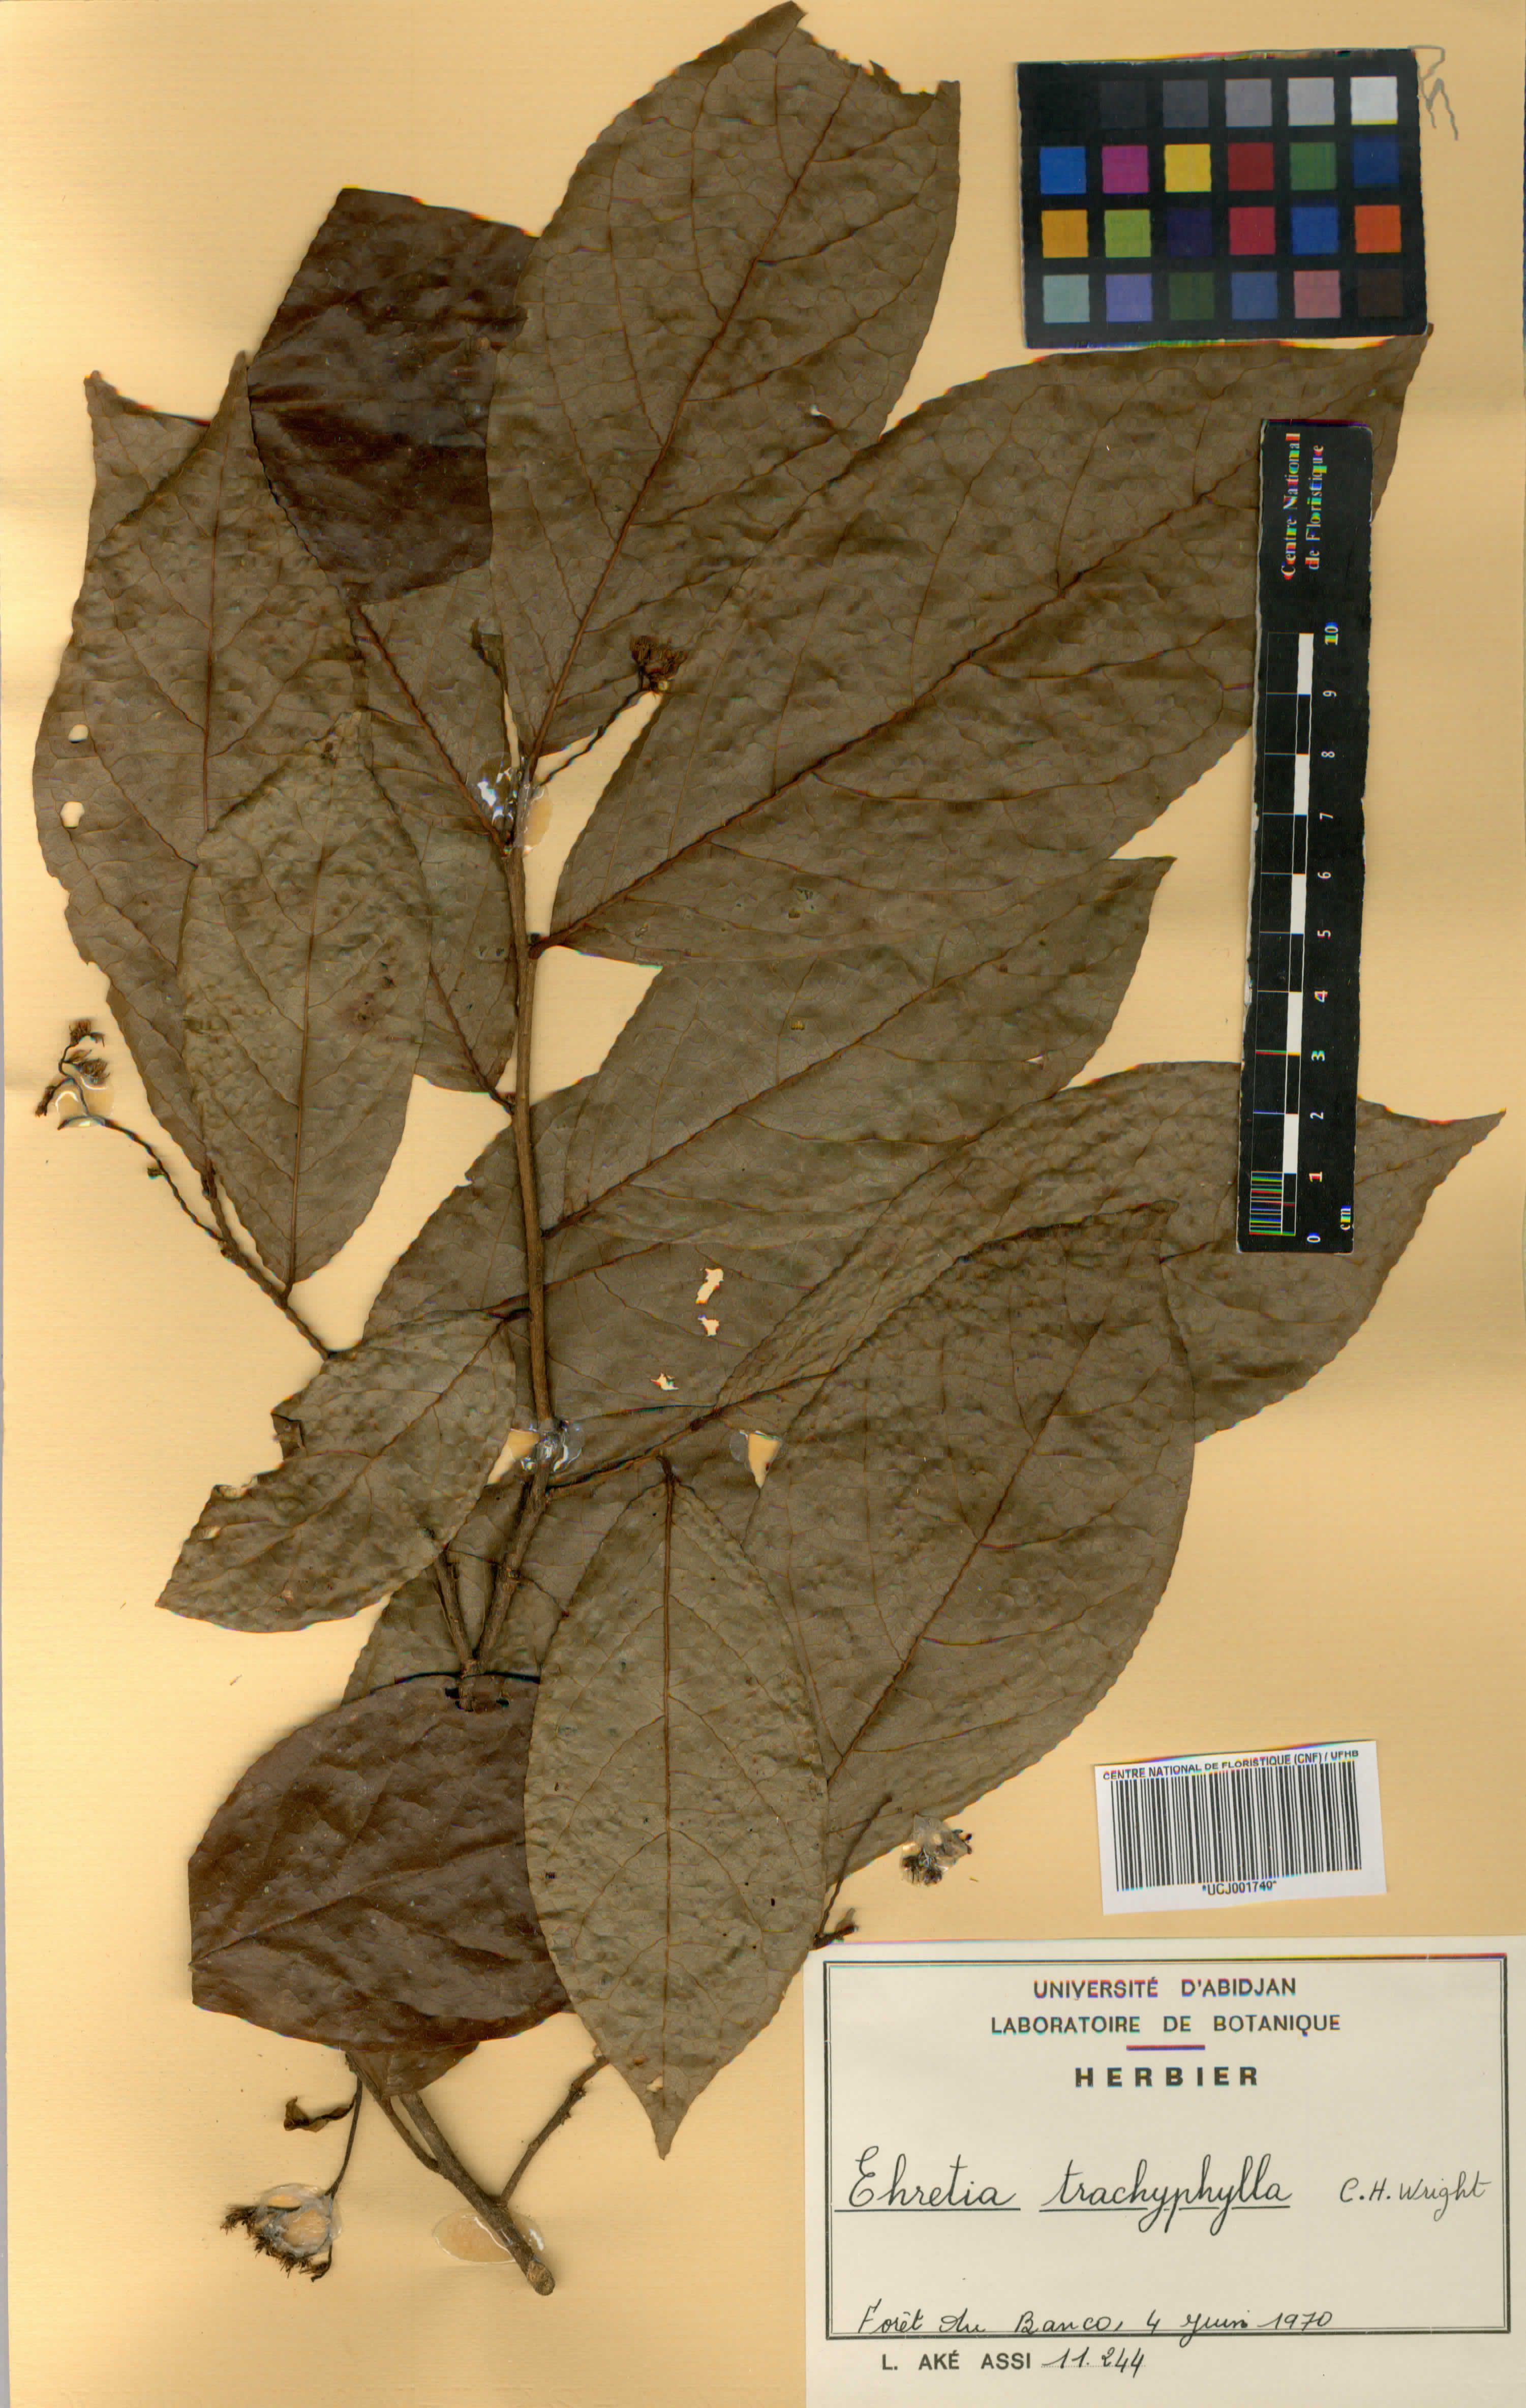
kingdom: Plantae
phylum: Tracheophyta
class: Magnoliopsida
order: Boraginales
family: Ehretiaceae
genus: Ehretia
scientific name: Ehretia trachyphylla
